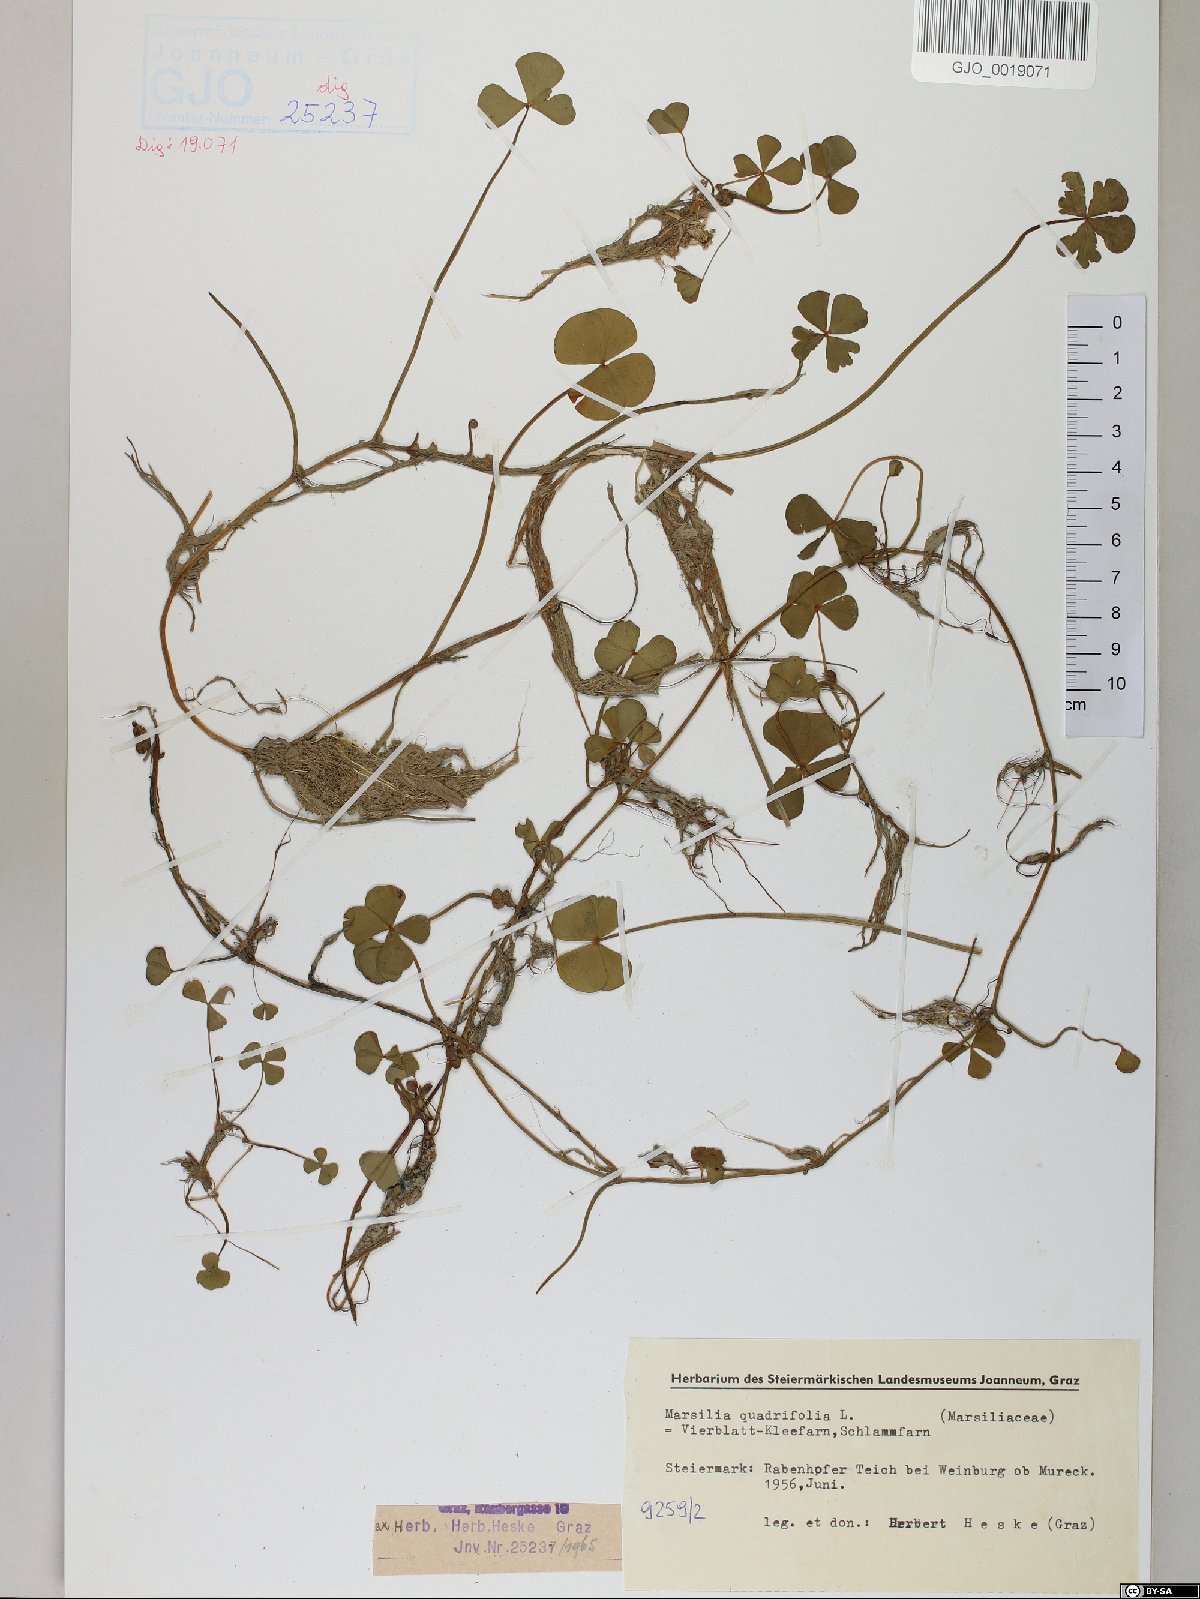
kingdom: Plantae
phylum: Tracheophyta
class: Polypodiopsida
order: Salviniales
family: Marsileaceae
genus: Marsilea
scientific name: Marsilea quadrifolia
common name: Water shamrock
